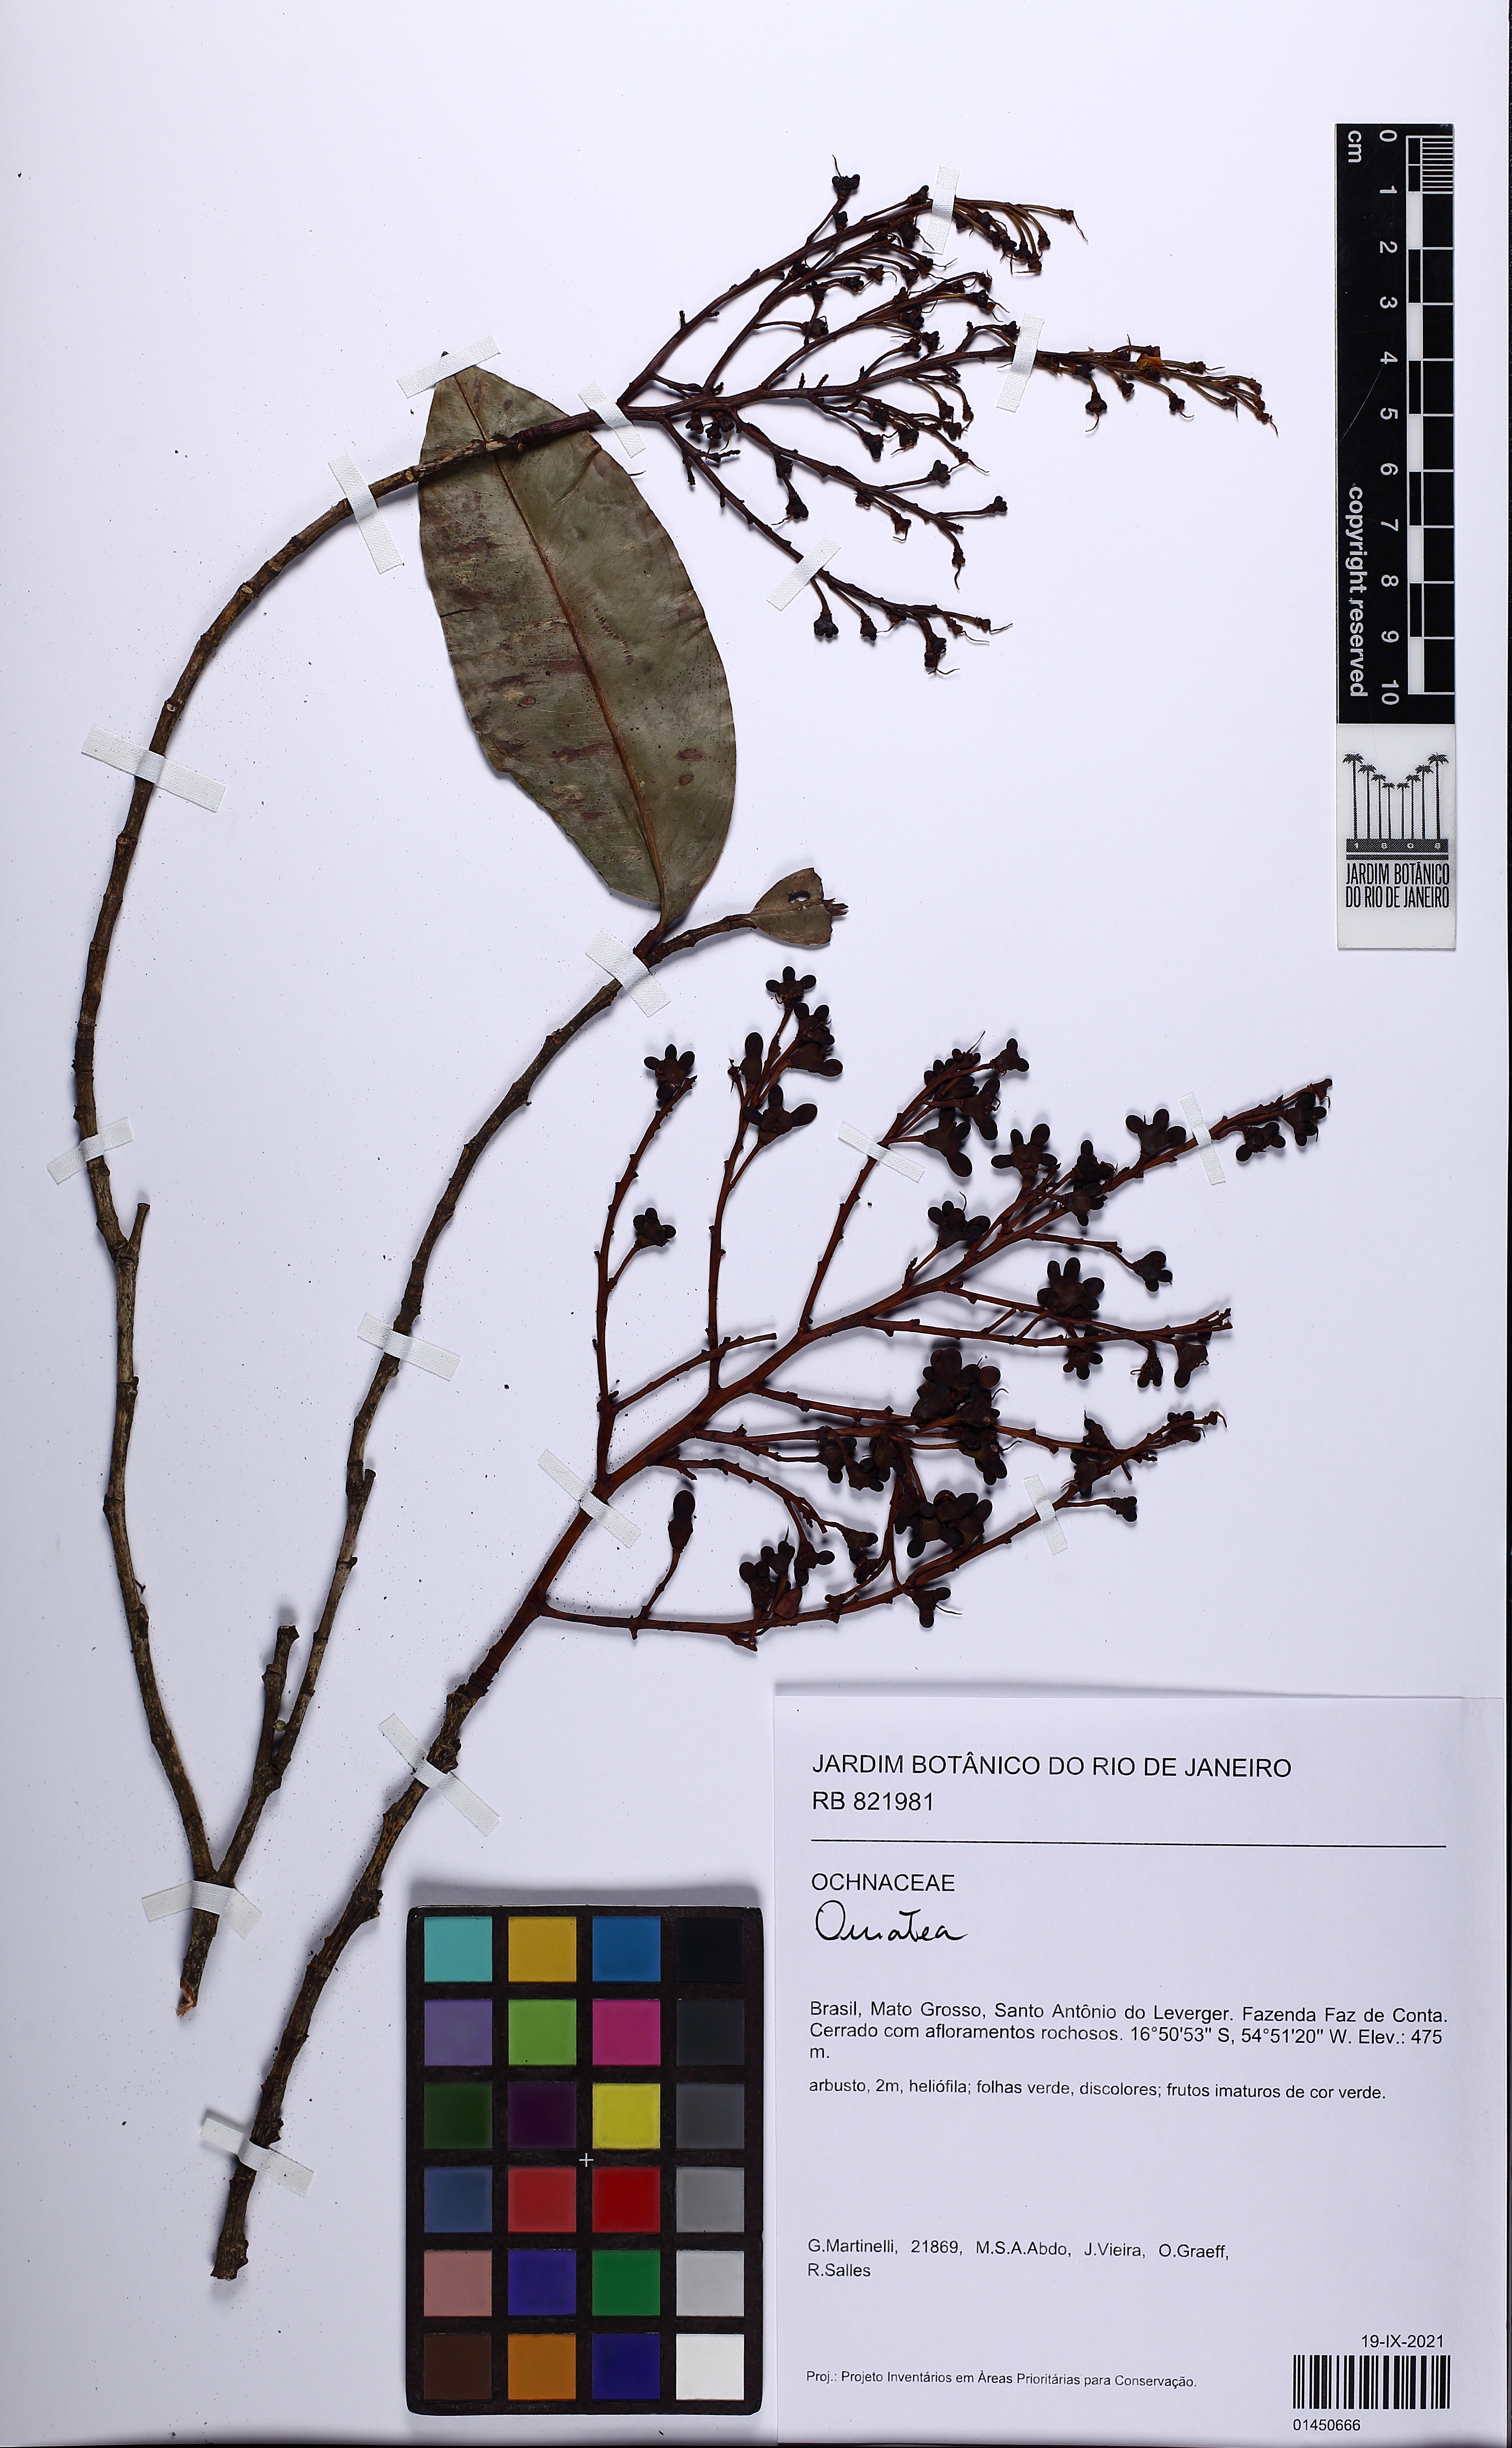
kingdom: Plantae
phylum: Tracheophyta
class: Magnoliopsida
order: Malpighiales
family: Ochnaceae
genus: Ouratea
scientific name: Ouratea
